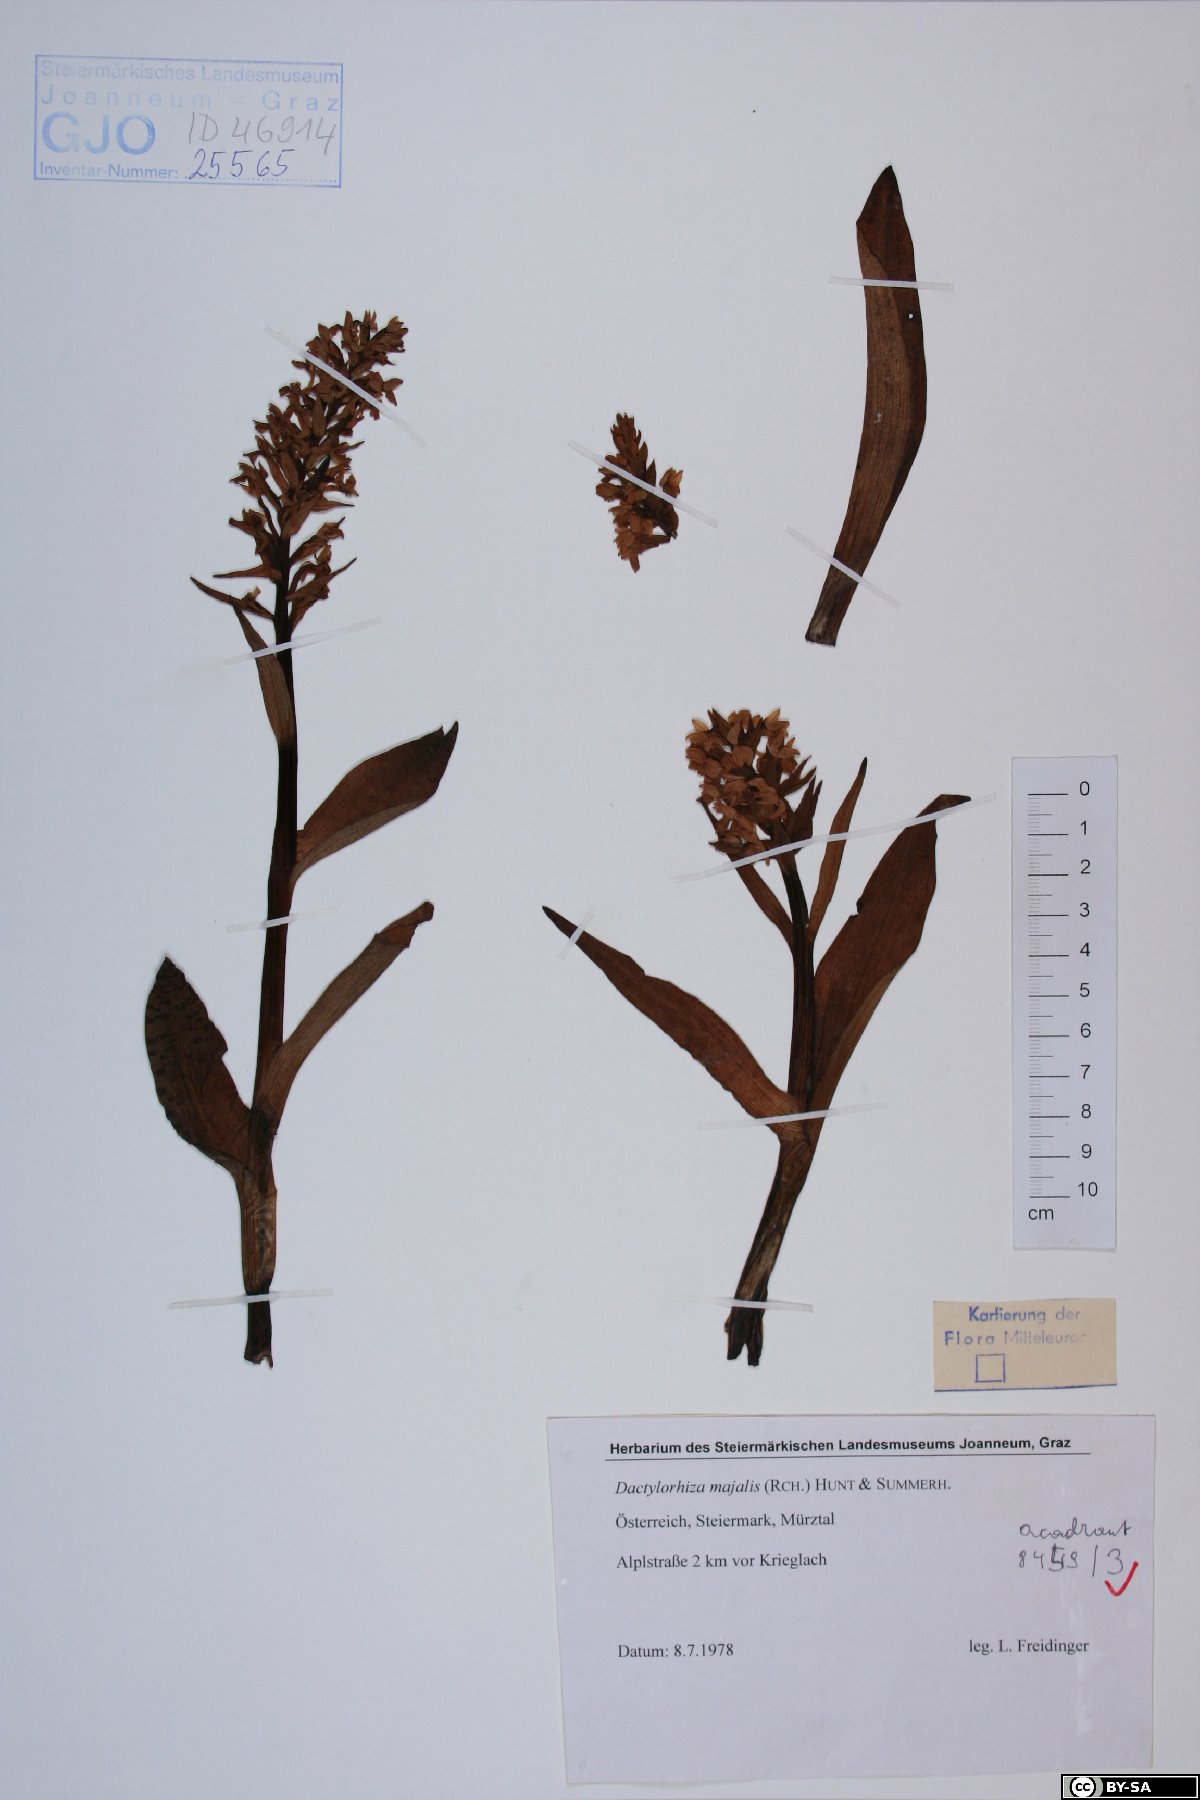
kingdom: Plantae
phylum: Tracheophyta
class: Liliopsida
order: Asparagales
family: Orchidaceae
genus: Dactylorhiza
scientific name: Dactylorhiza majalis
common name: Marsh orchid
